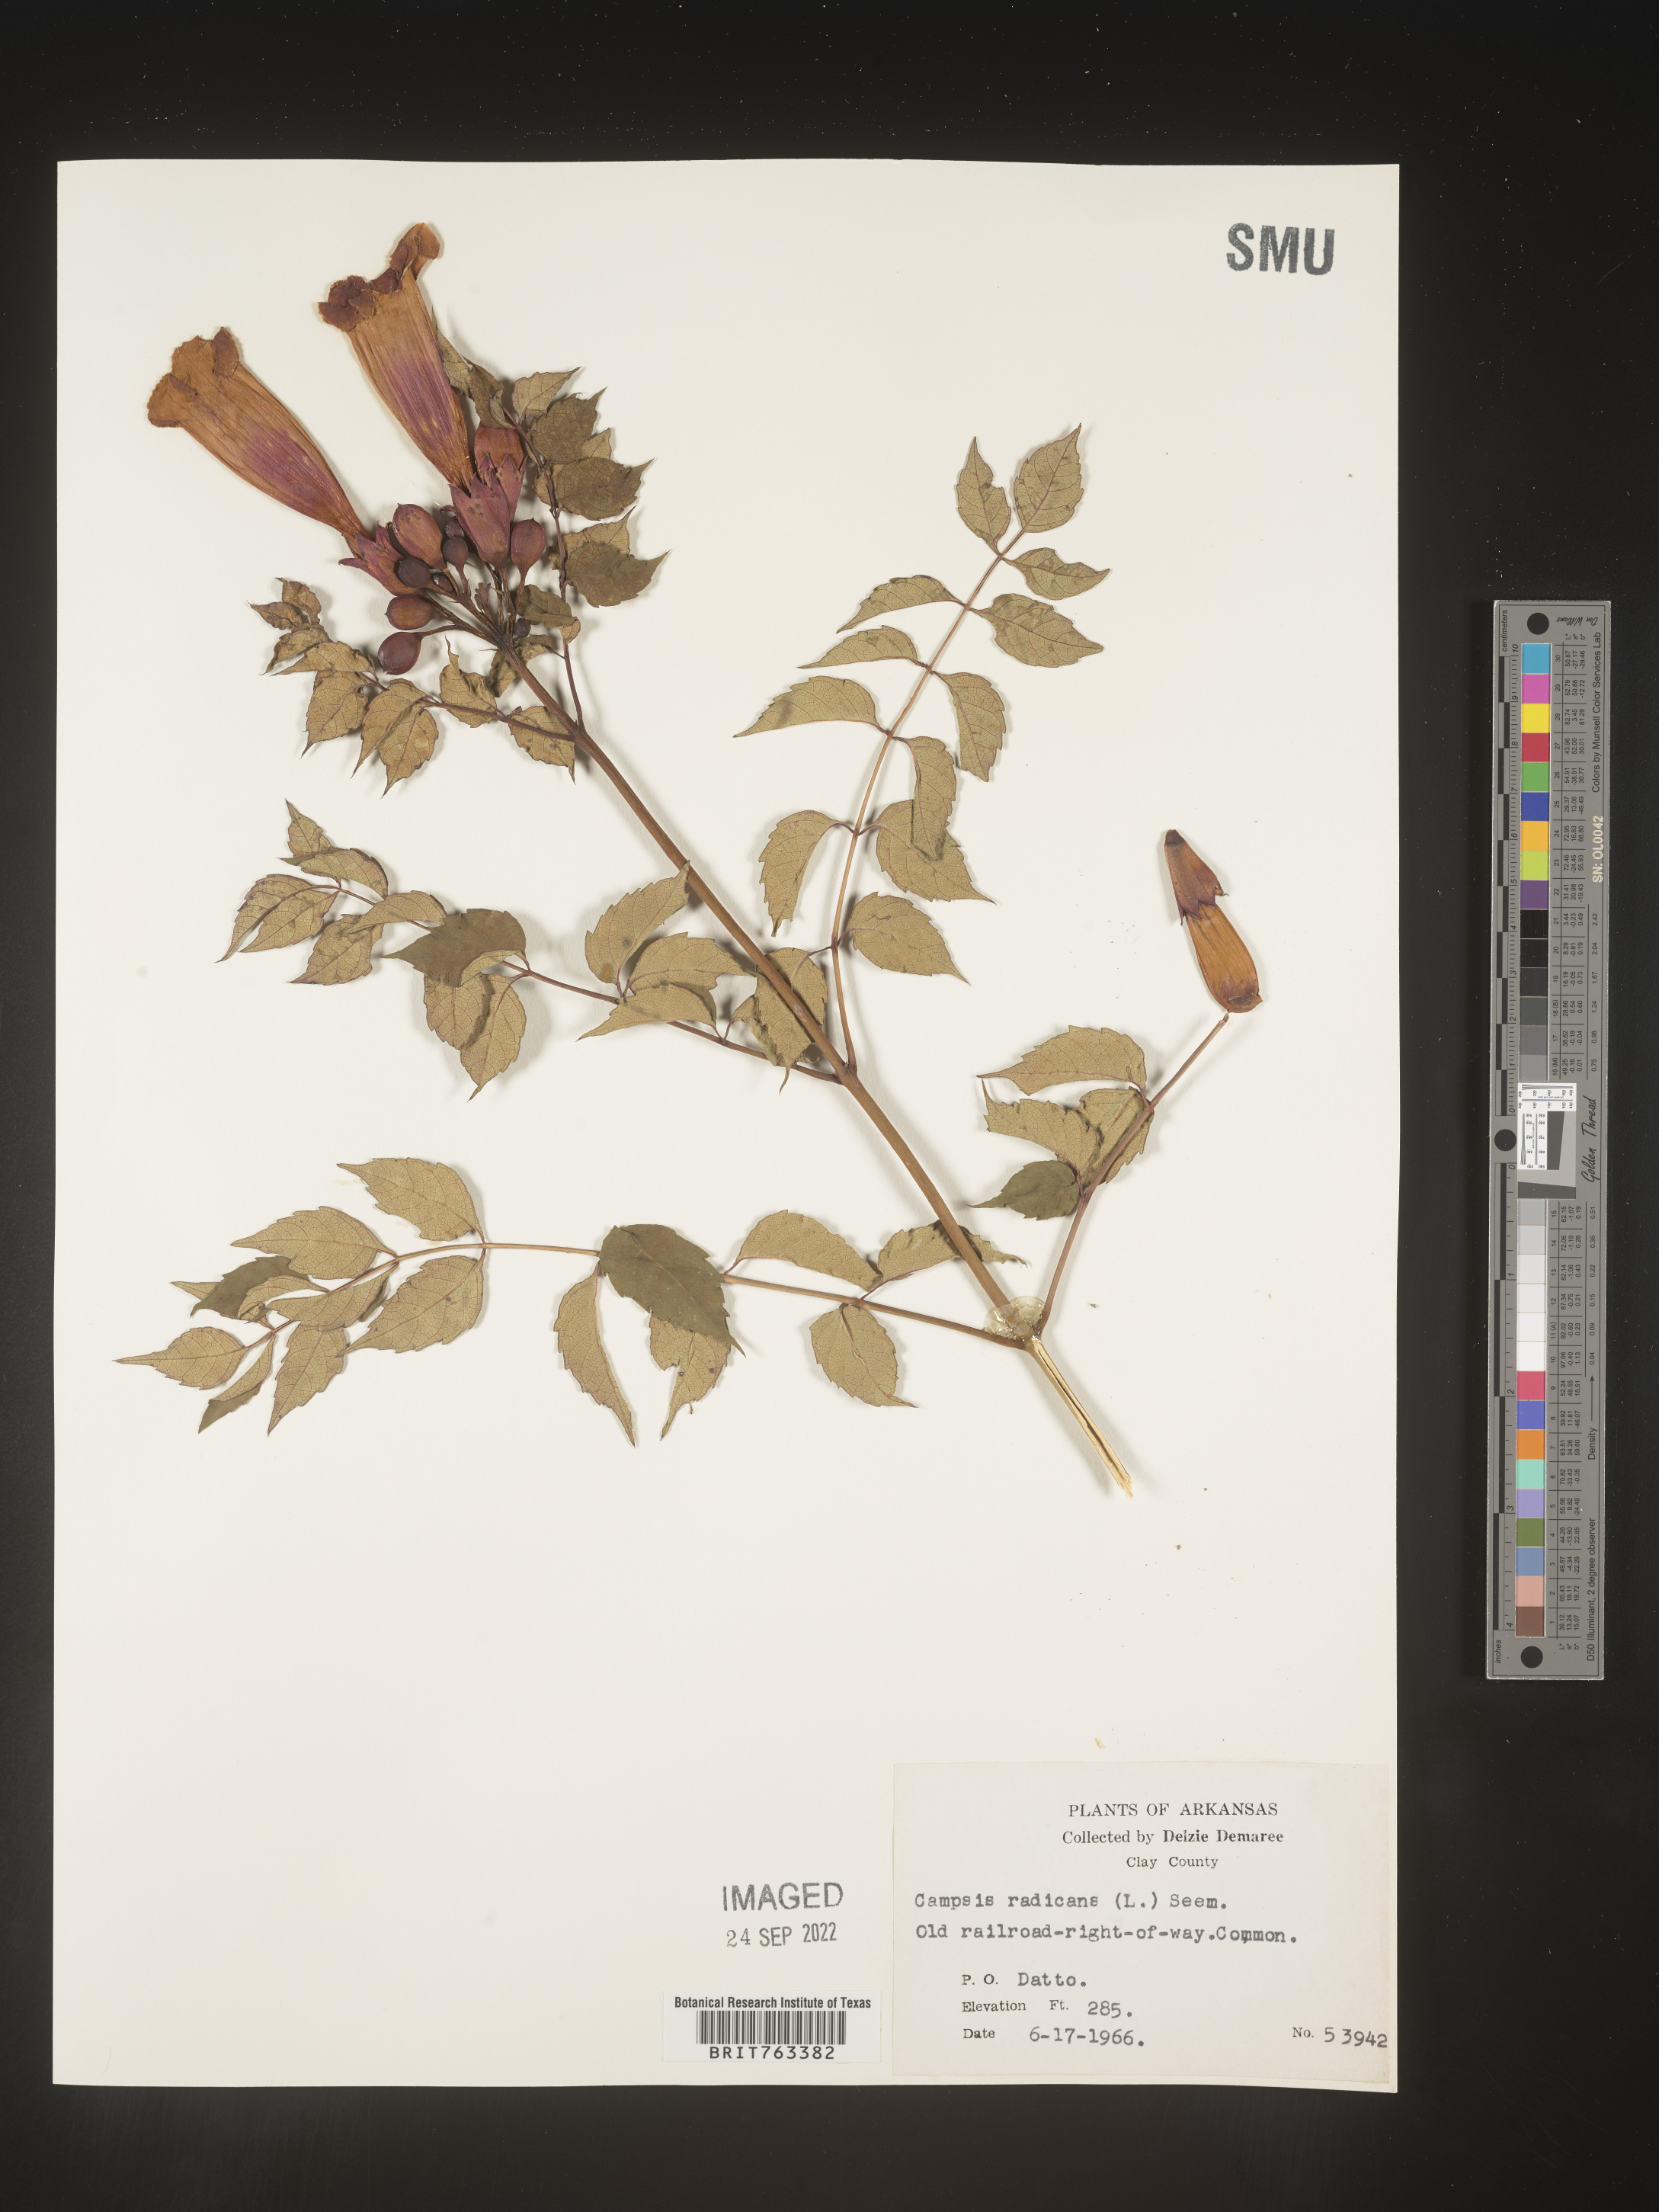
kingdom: Plantae
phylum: Tracheophyta
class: Magnoliopsida
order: Lamiales
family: Bignoniaceae
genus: Campsis
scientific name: Campsis radicans
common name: Trumpet-creeper
